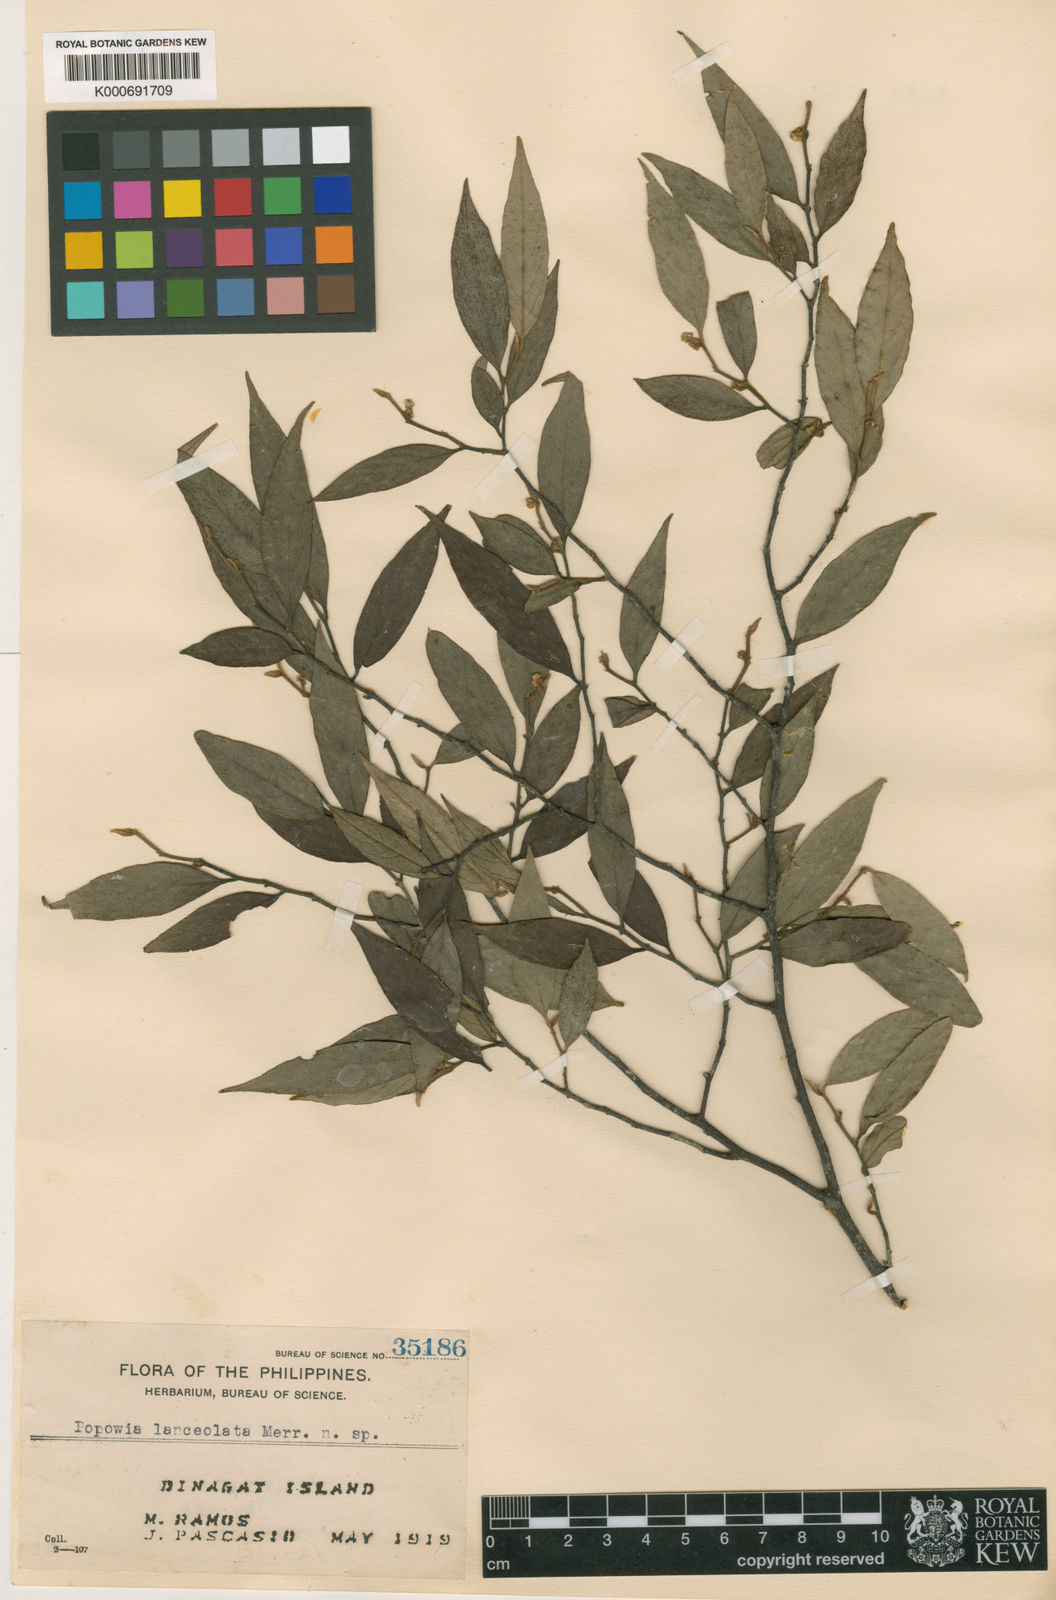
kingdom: Plantae
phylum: Tracheophyta
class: Magnoliopsida
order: Magnoliales
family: Annonaceae
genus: Popowia
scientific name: Popowia lanceolata
